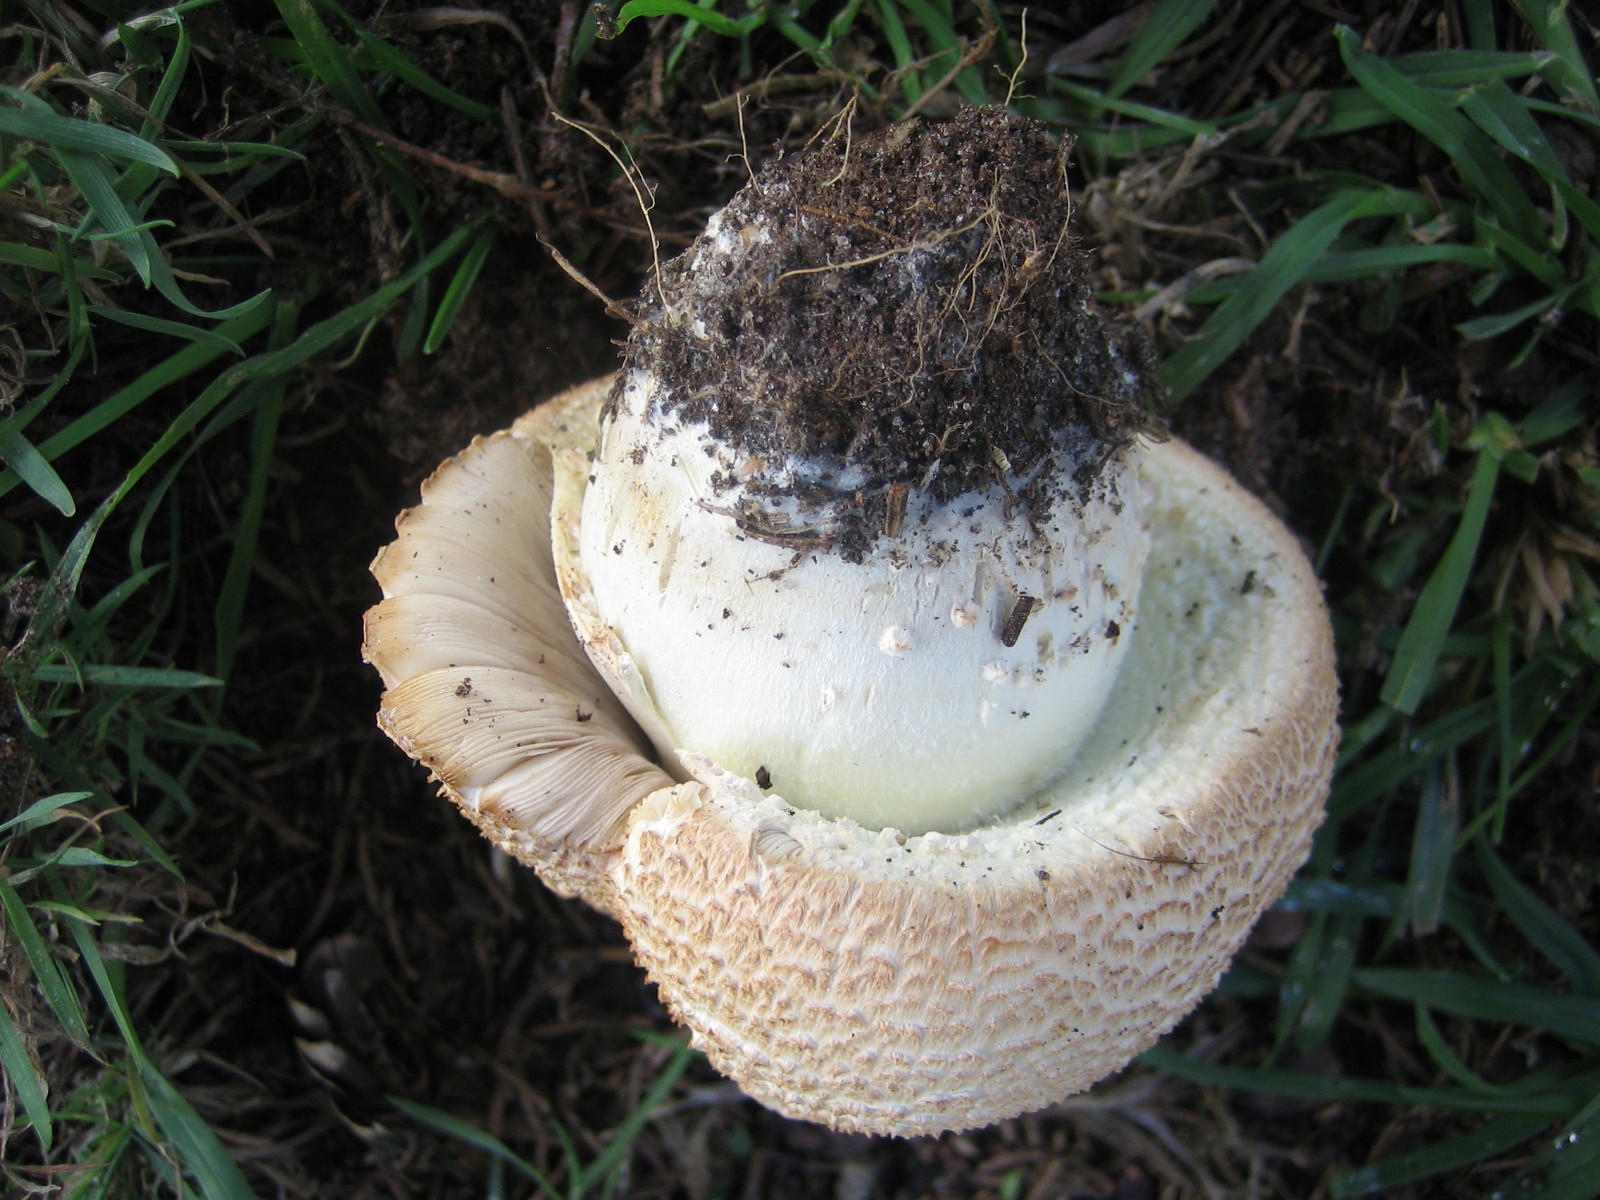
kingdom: Fungi
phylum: Basidiomycota
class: Agaricomycetes
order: Agaricales
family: Agaricaceae
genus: Agaricus
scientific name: Agaricus
